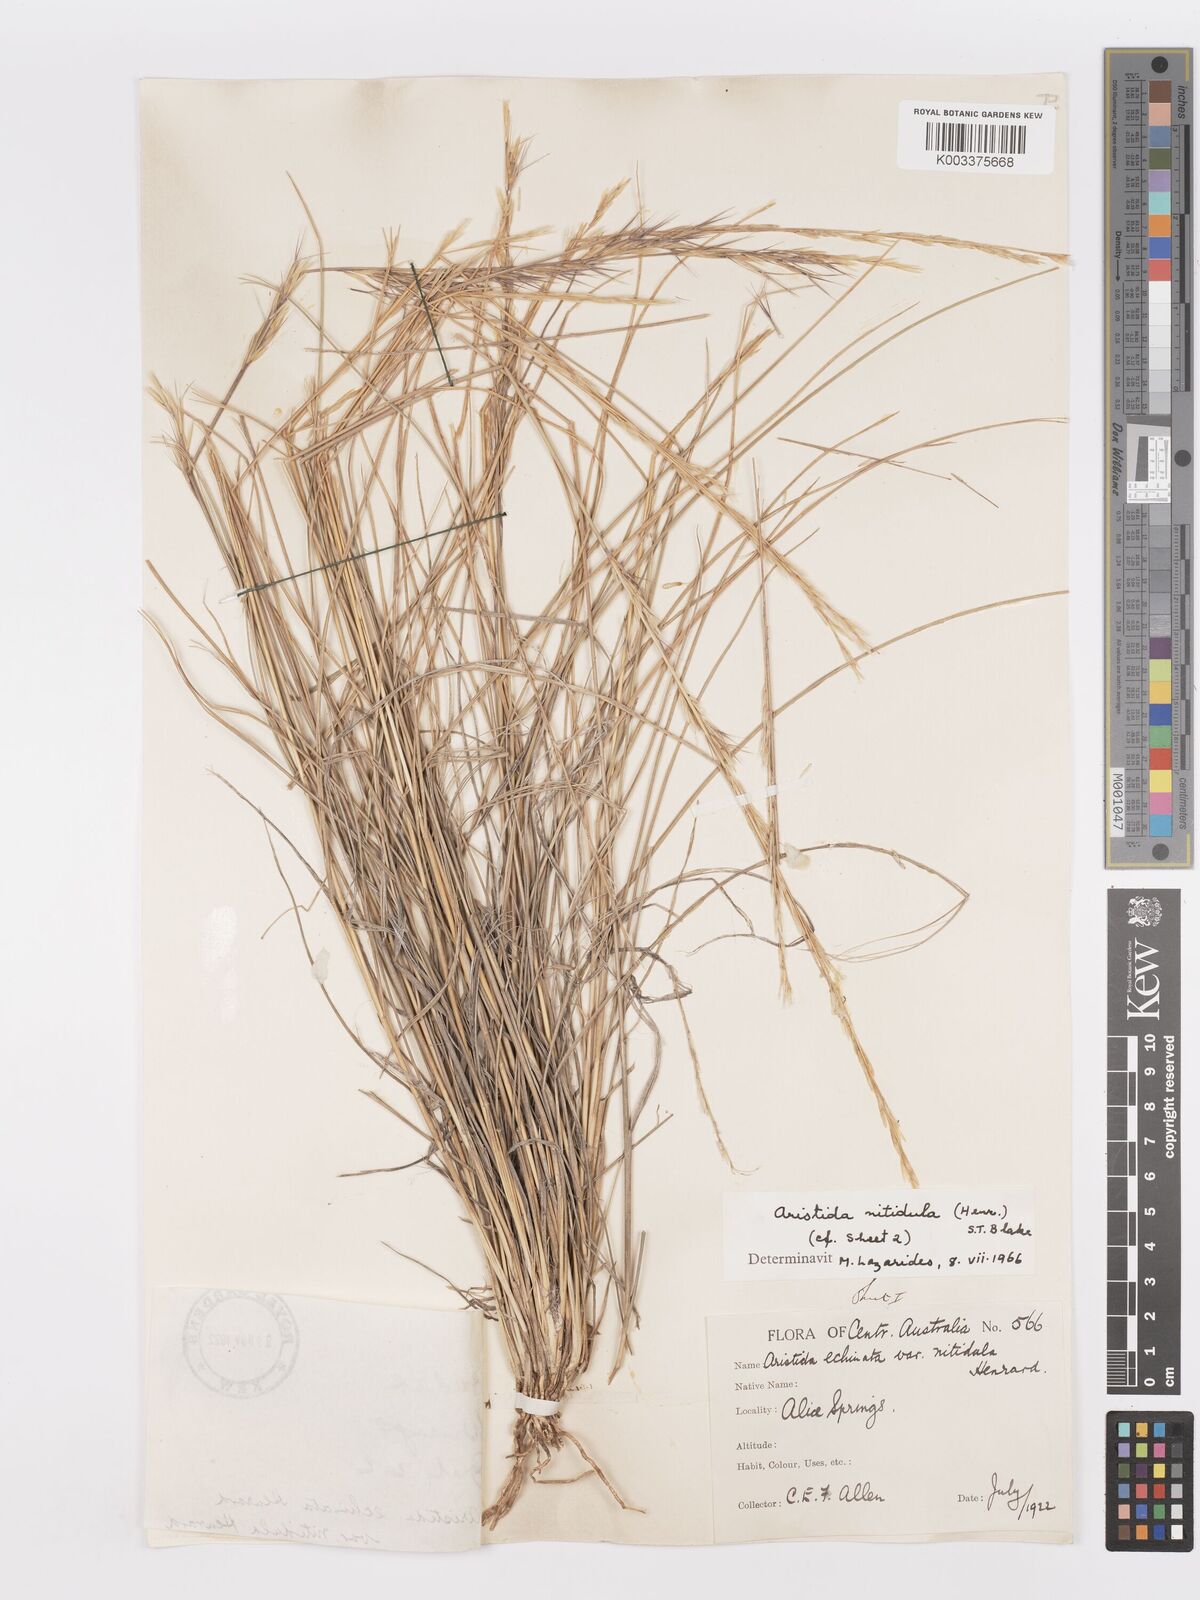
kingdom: Plantae
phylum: Tracheophyta
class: Liliopsida
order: Poales
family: Poaceae
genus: Aristida
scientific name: Aristida nitidula
